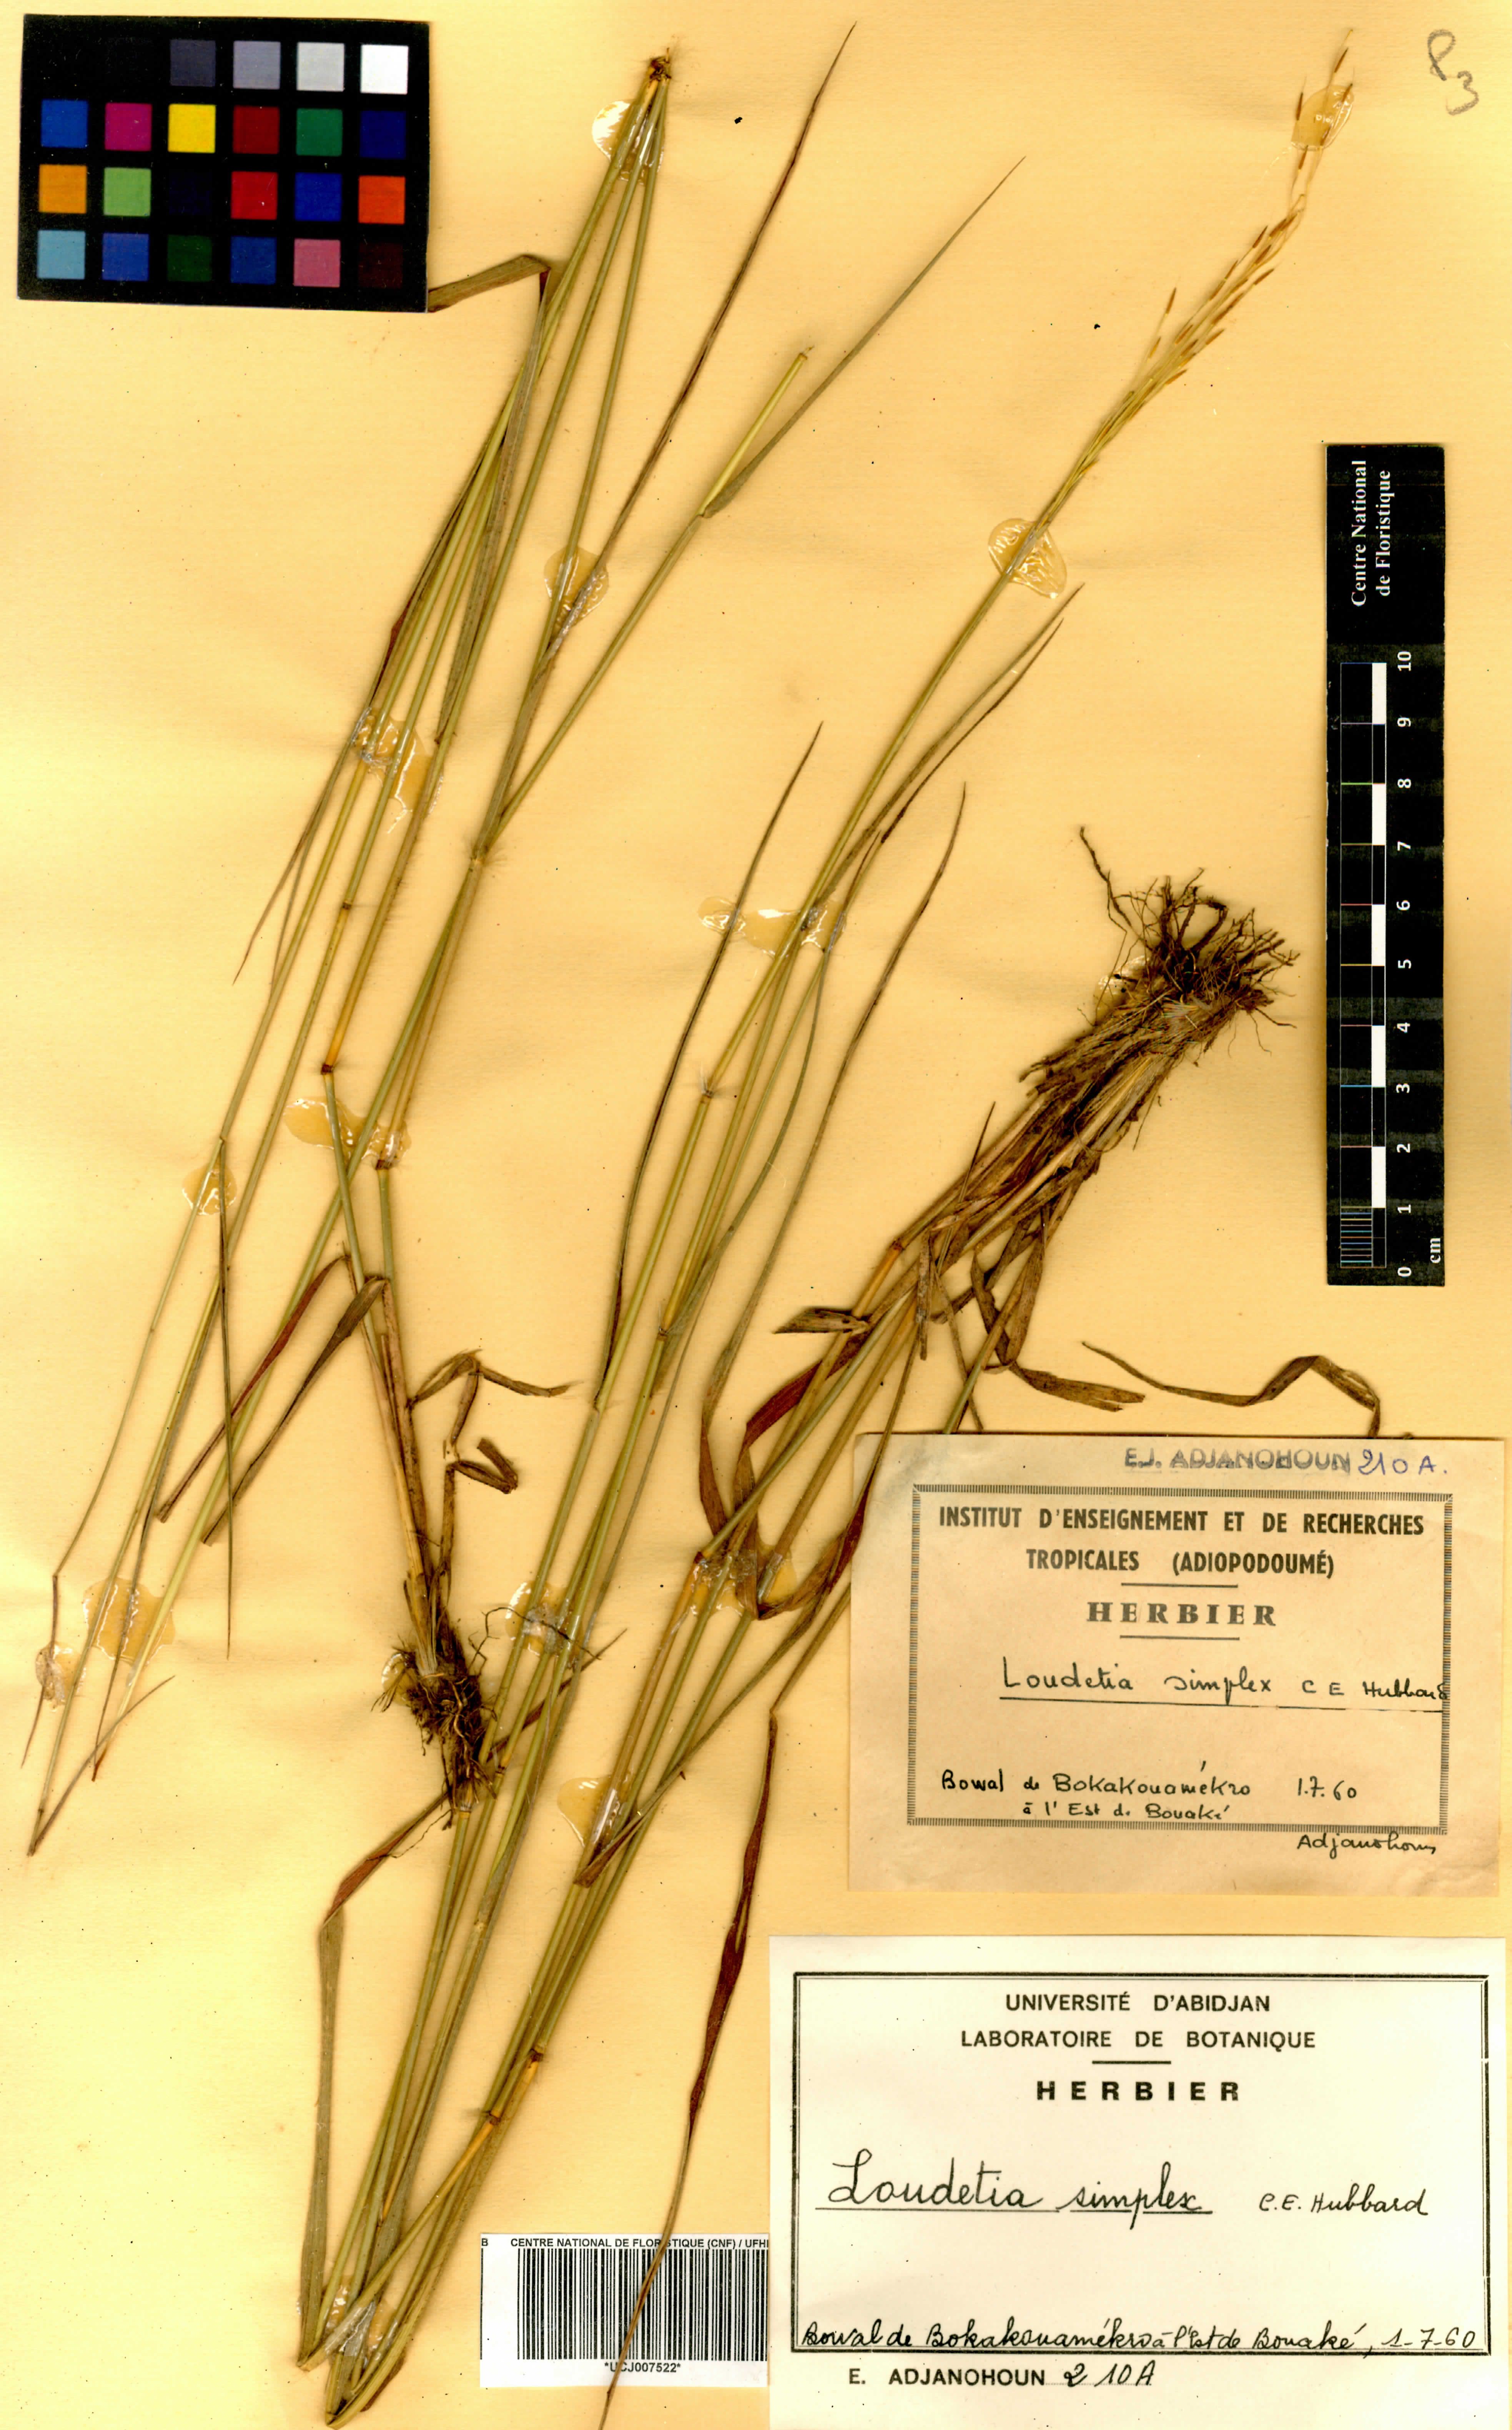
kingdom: Plantae
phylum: Tracheophyta
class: Liliopsida
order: Poales
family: Poaceae
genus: Loudetia
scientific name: Loudetia simplex
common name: Common russet grass
